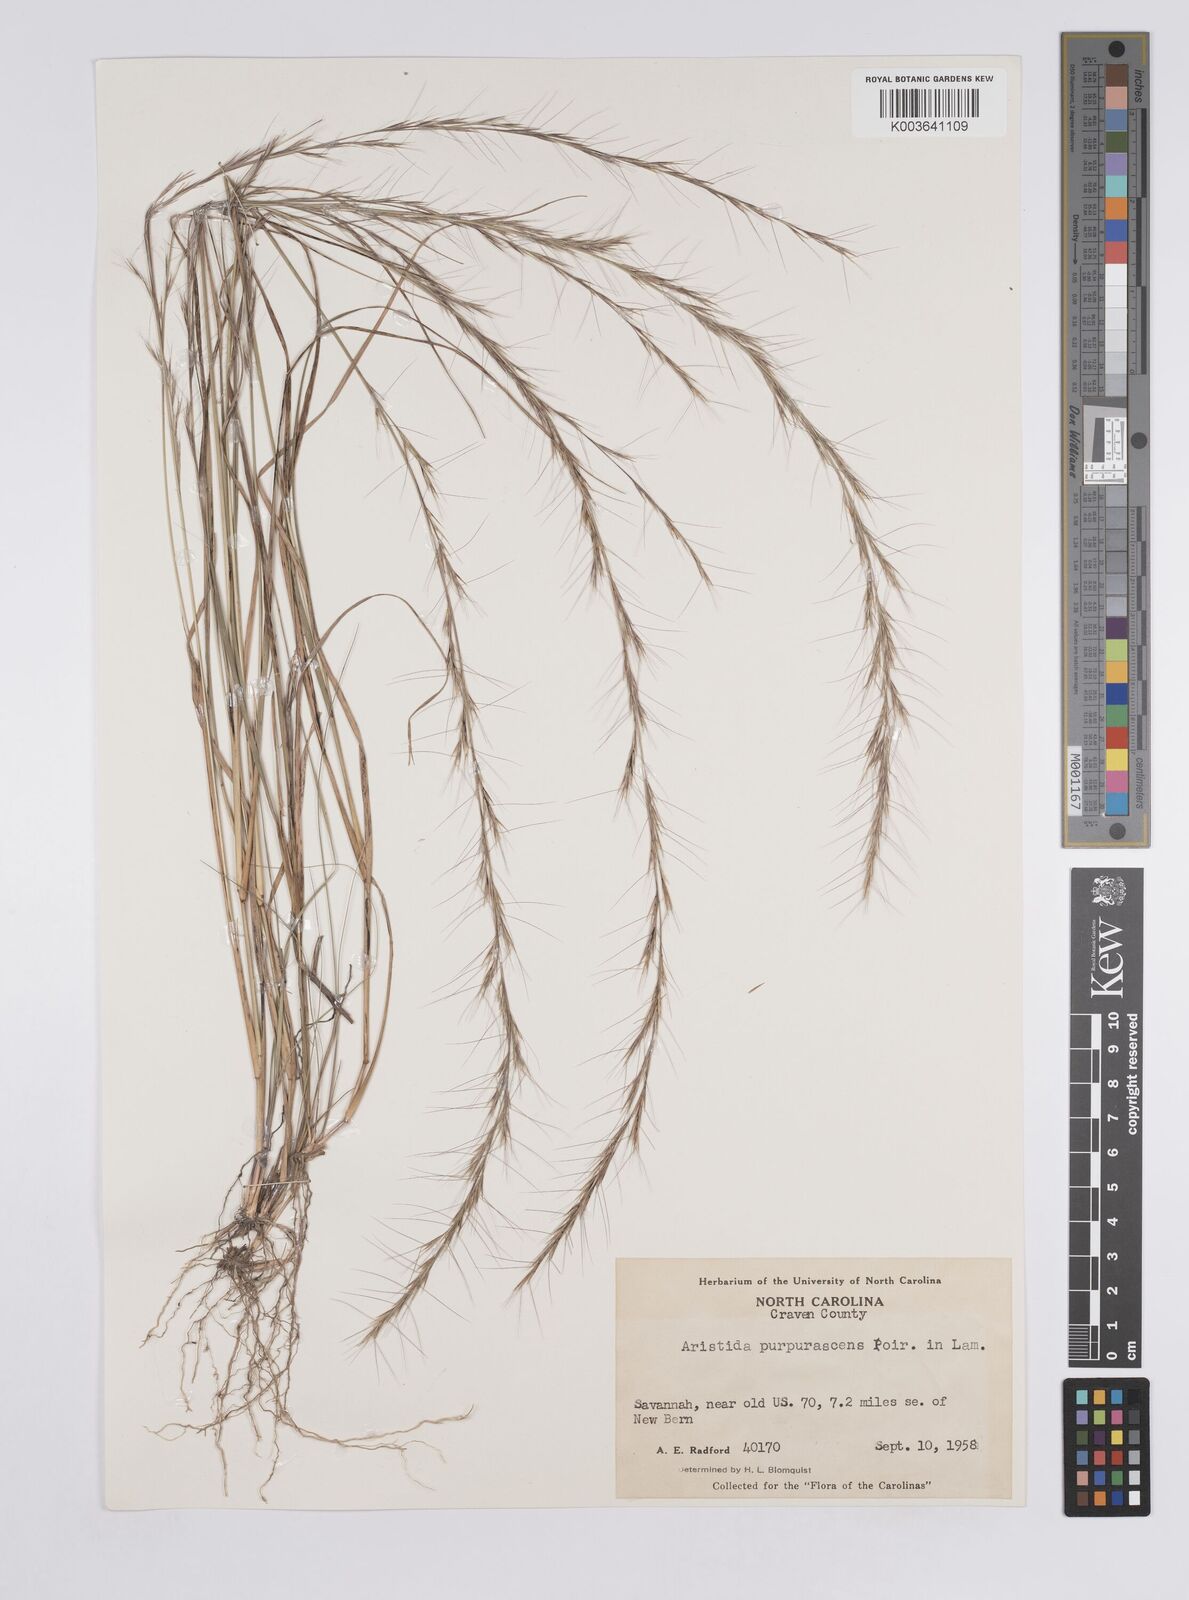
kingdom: Plantae
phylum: Tracheophyta
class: Liliopsida
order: Poales
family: Poaceae
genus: Aristida
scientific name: Aristida purpurascens
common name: Arrow-feather
